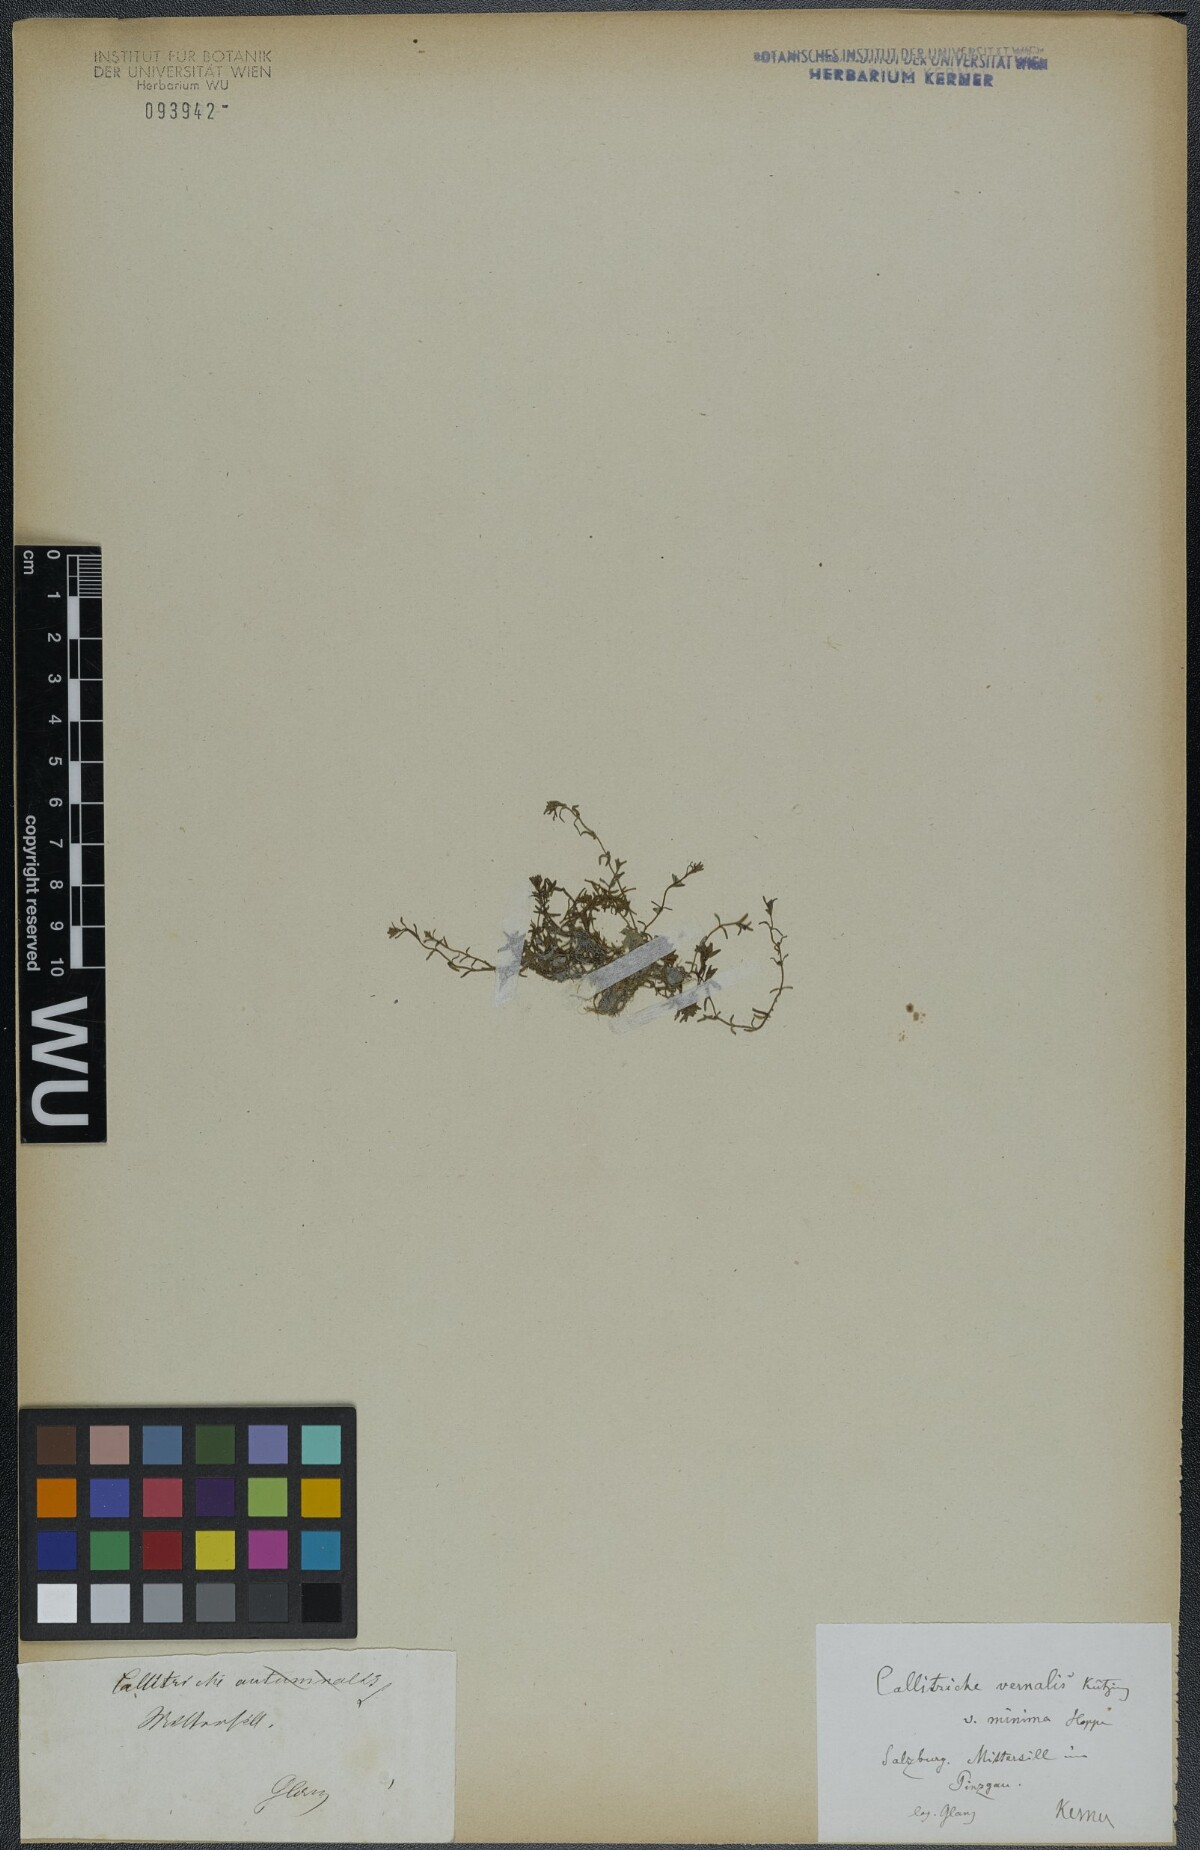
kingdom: Plantae
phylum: Tracheophyta
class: Magnoliopsida
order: Lamiales
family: Plantaginaceae
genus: Callitriche
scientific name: Callitriche palustris
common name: Spring water-starwort
